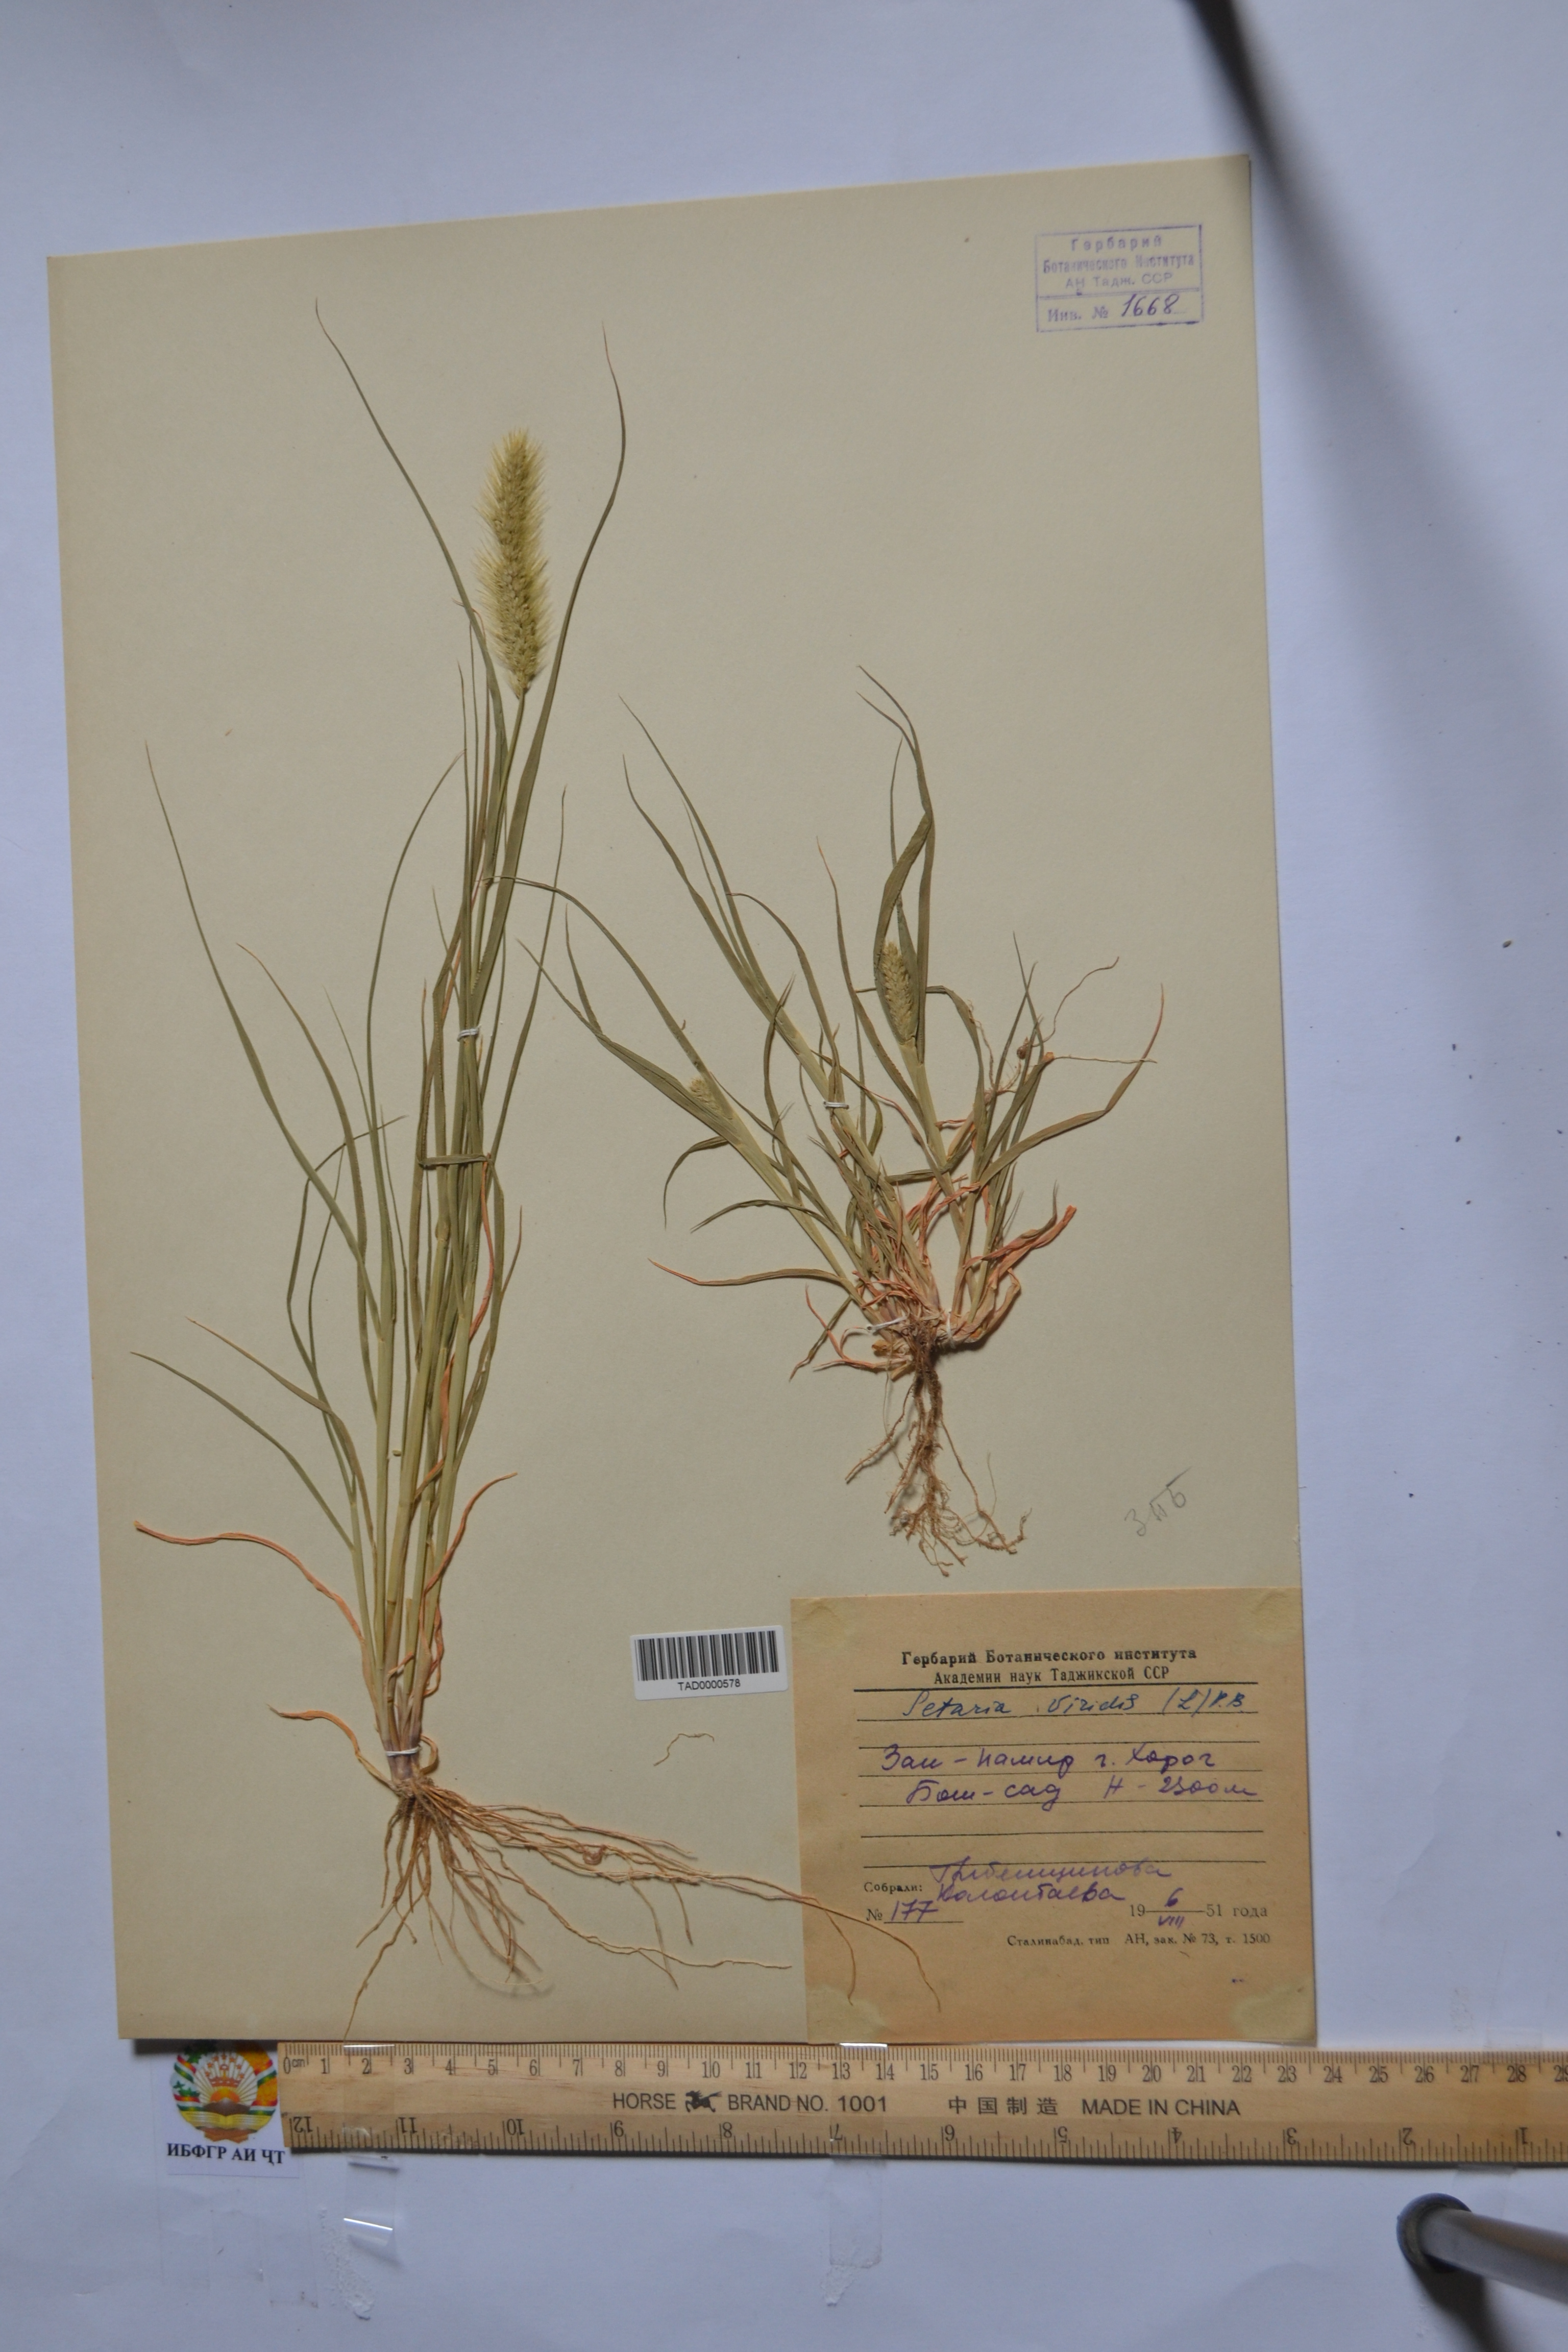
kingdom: Plantae
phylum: Tracheophyta
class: Liliopsida
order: Poales
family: Poaceae
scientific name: Poaceae
